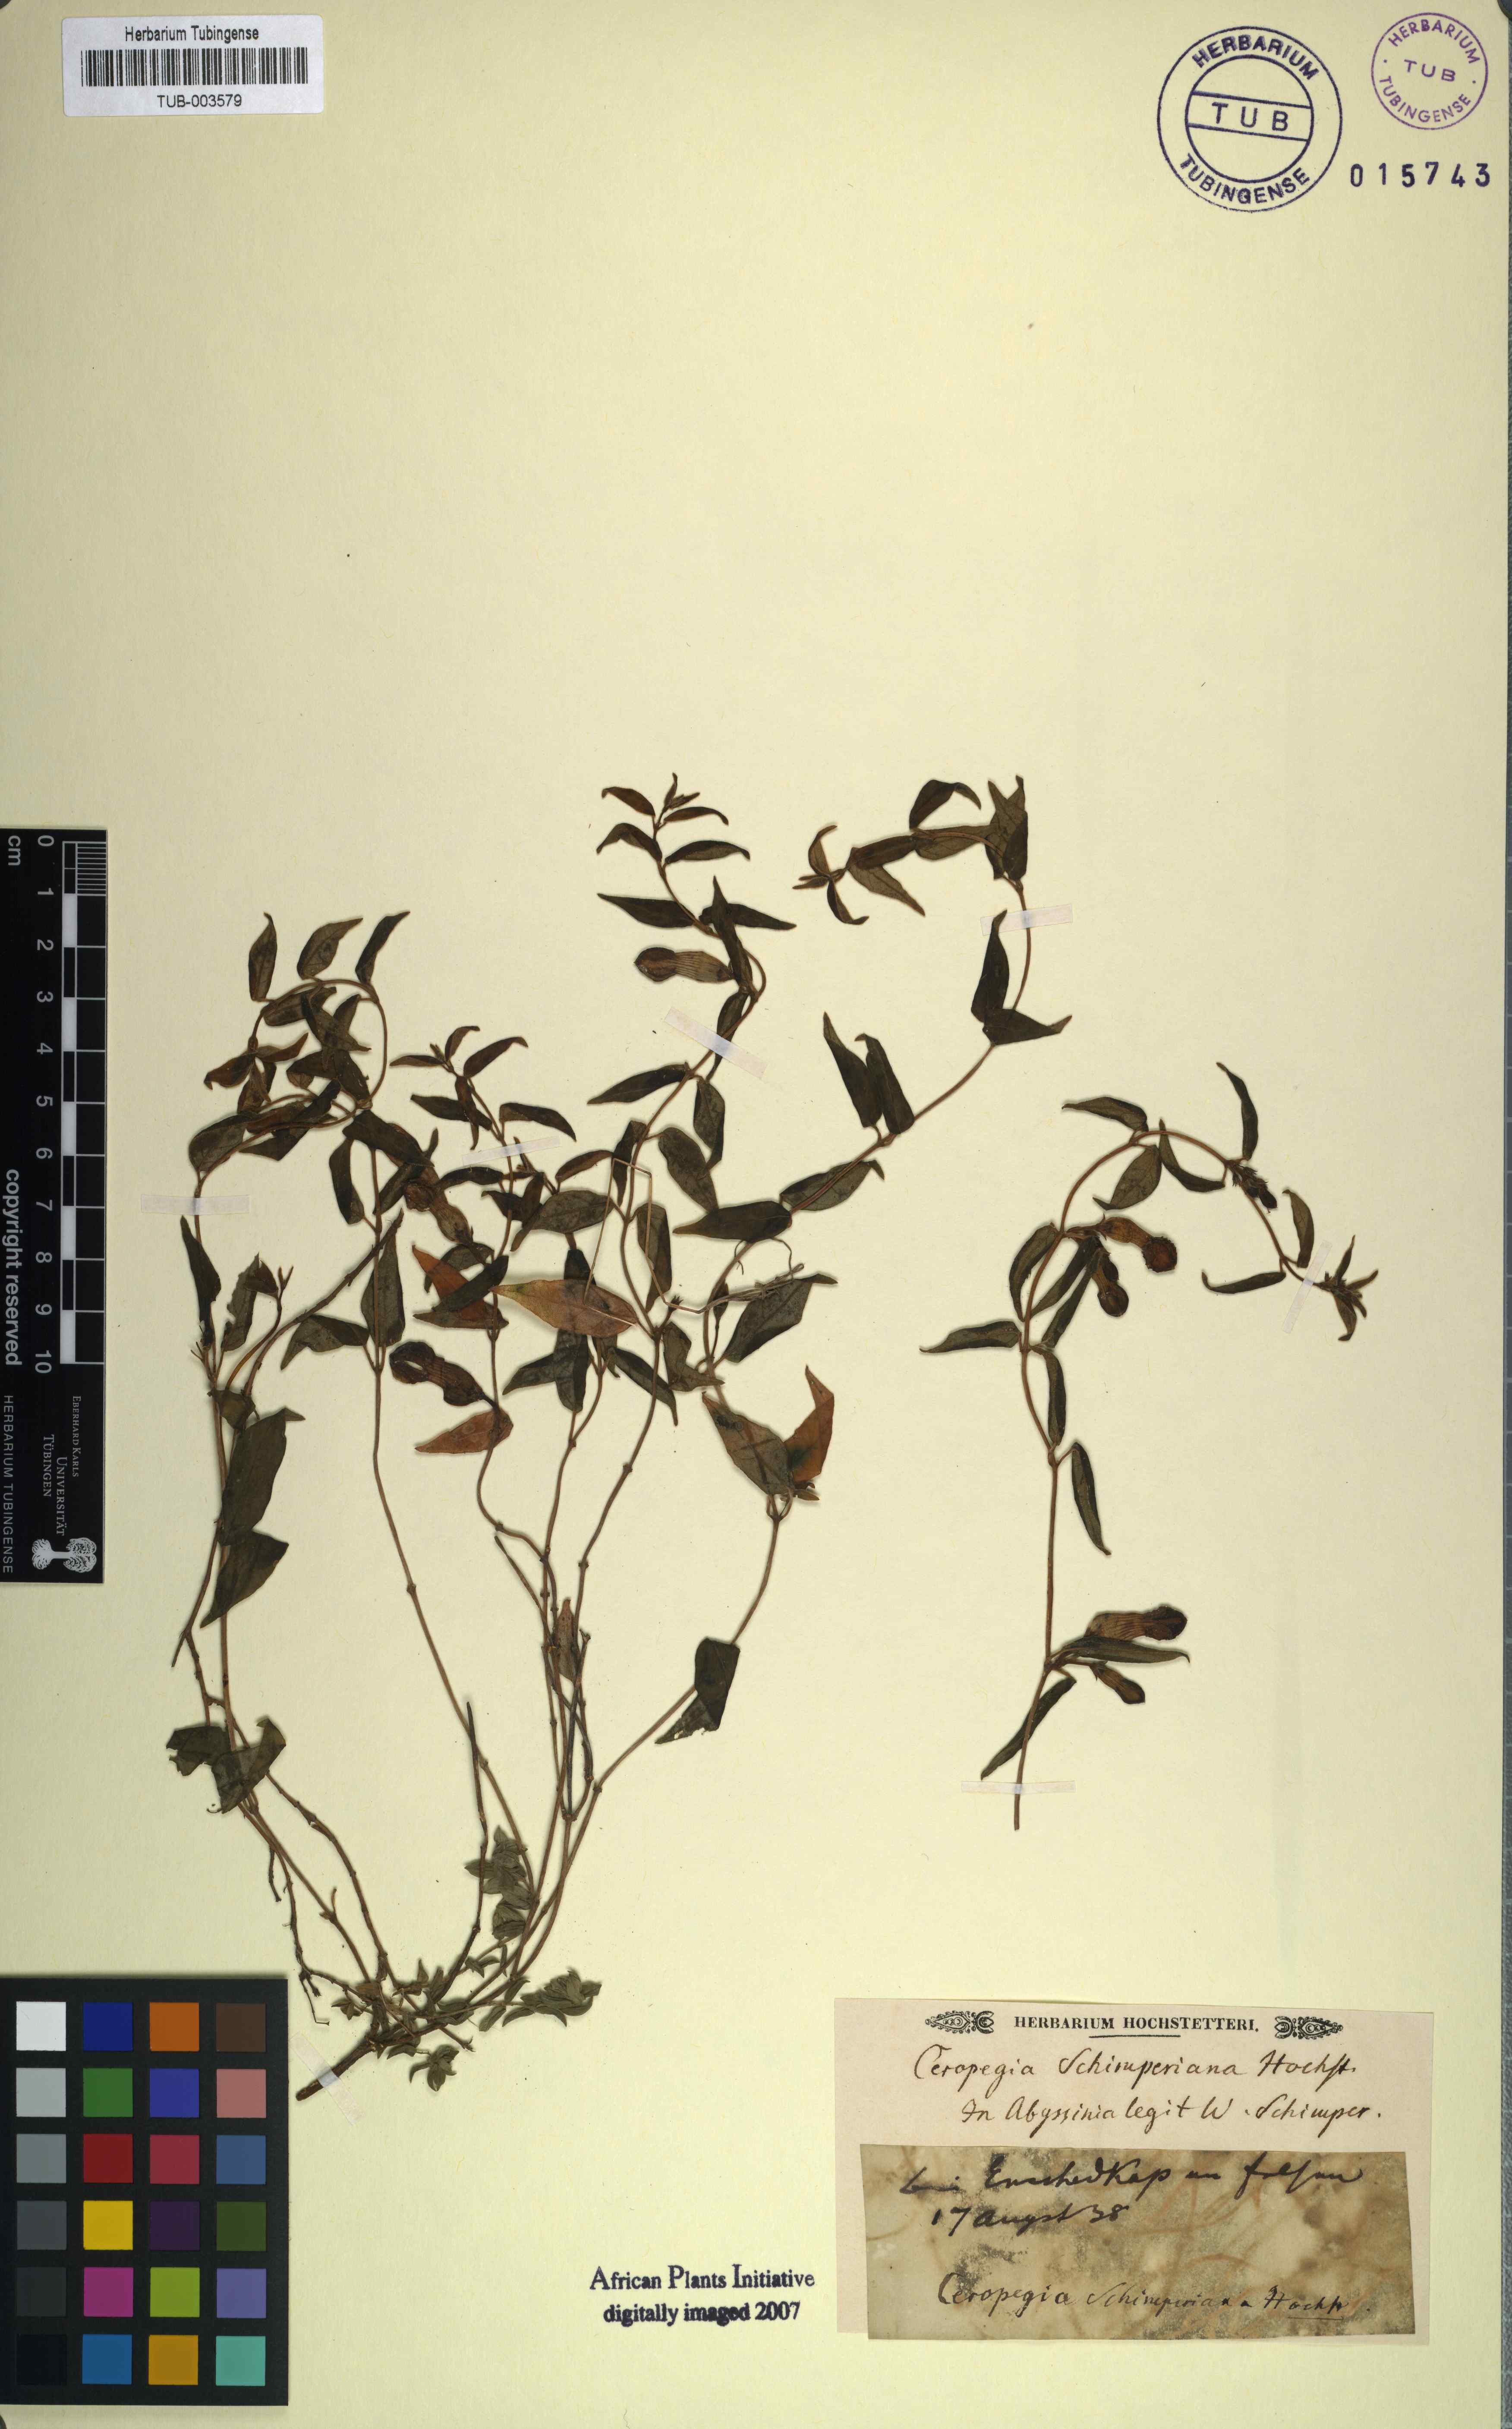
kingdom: Plantae
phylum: Tracheophyta
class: Magnoliopsida
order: Gentianales
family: Apocynaceae
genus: Ceropegia
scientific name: Ceropegia
